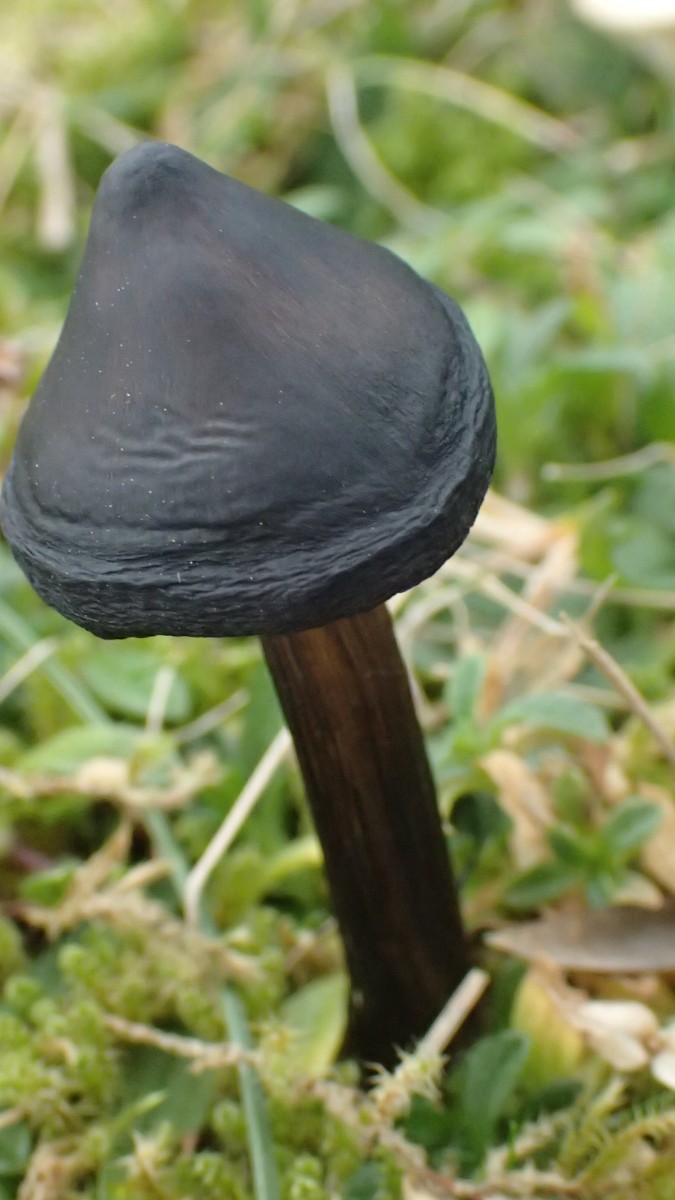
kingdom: Fungi
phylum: Basidiomycota
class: Agaricomycetes
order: Agaricales
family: Hygrophoraceae
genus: Hygrocybe
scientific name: Hygrocybe conica
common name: kegle-vokshat
